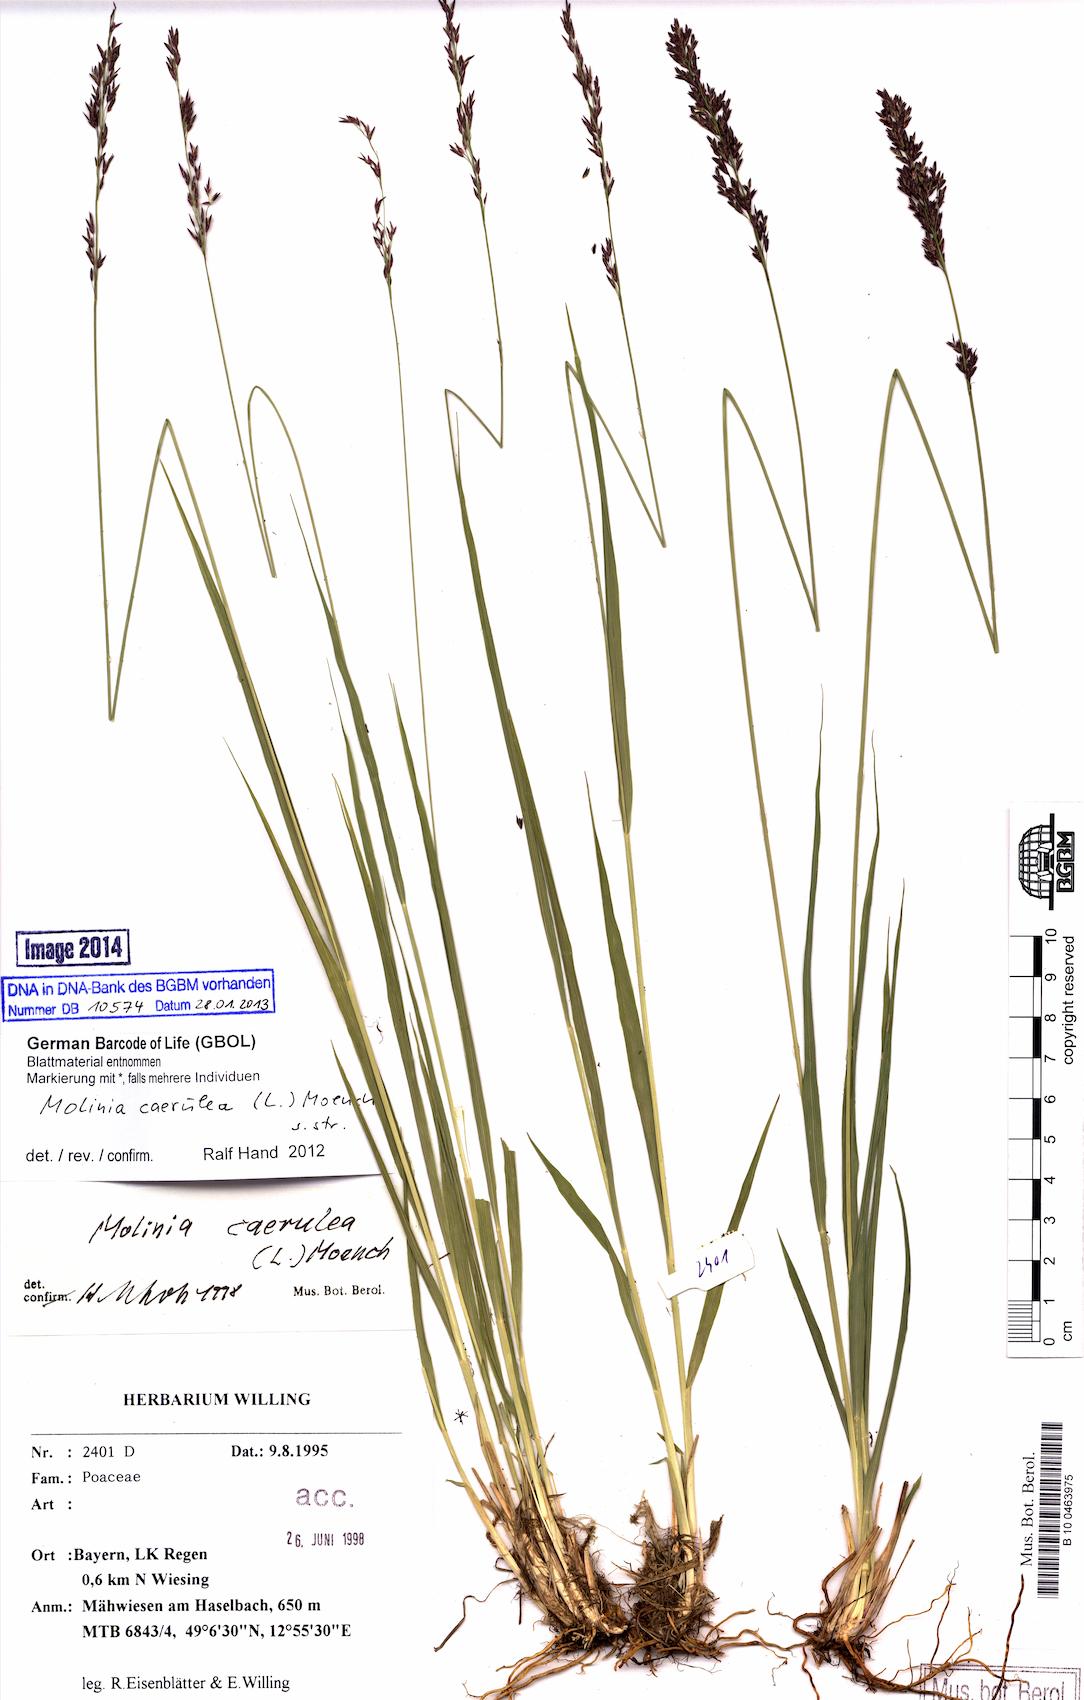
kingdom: Plantae
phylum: Tracheophyta
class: Liliopsida
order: Poales
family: Poaceae
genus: Molinia
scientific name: Molinia caerulea
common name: Purple moor-grass
